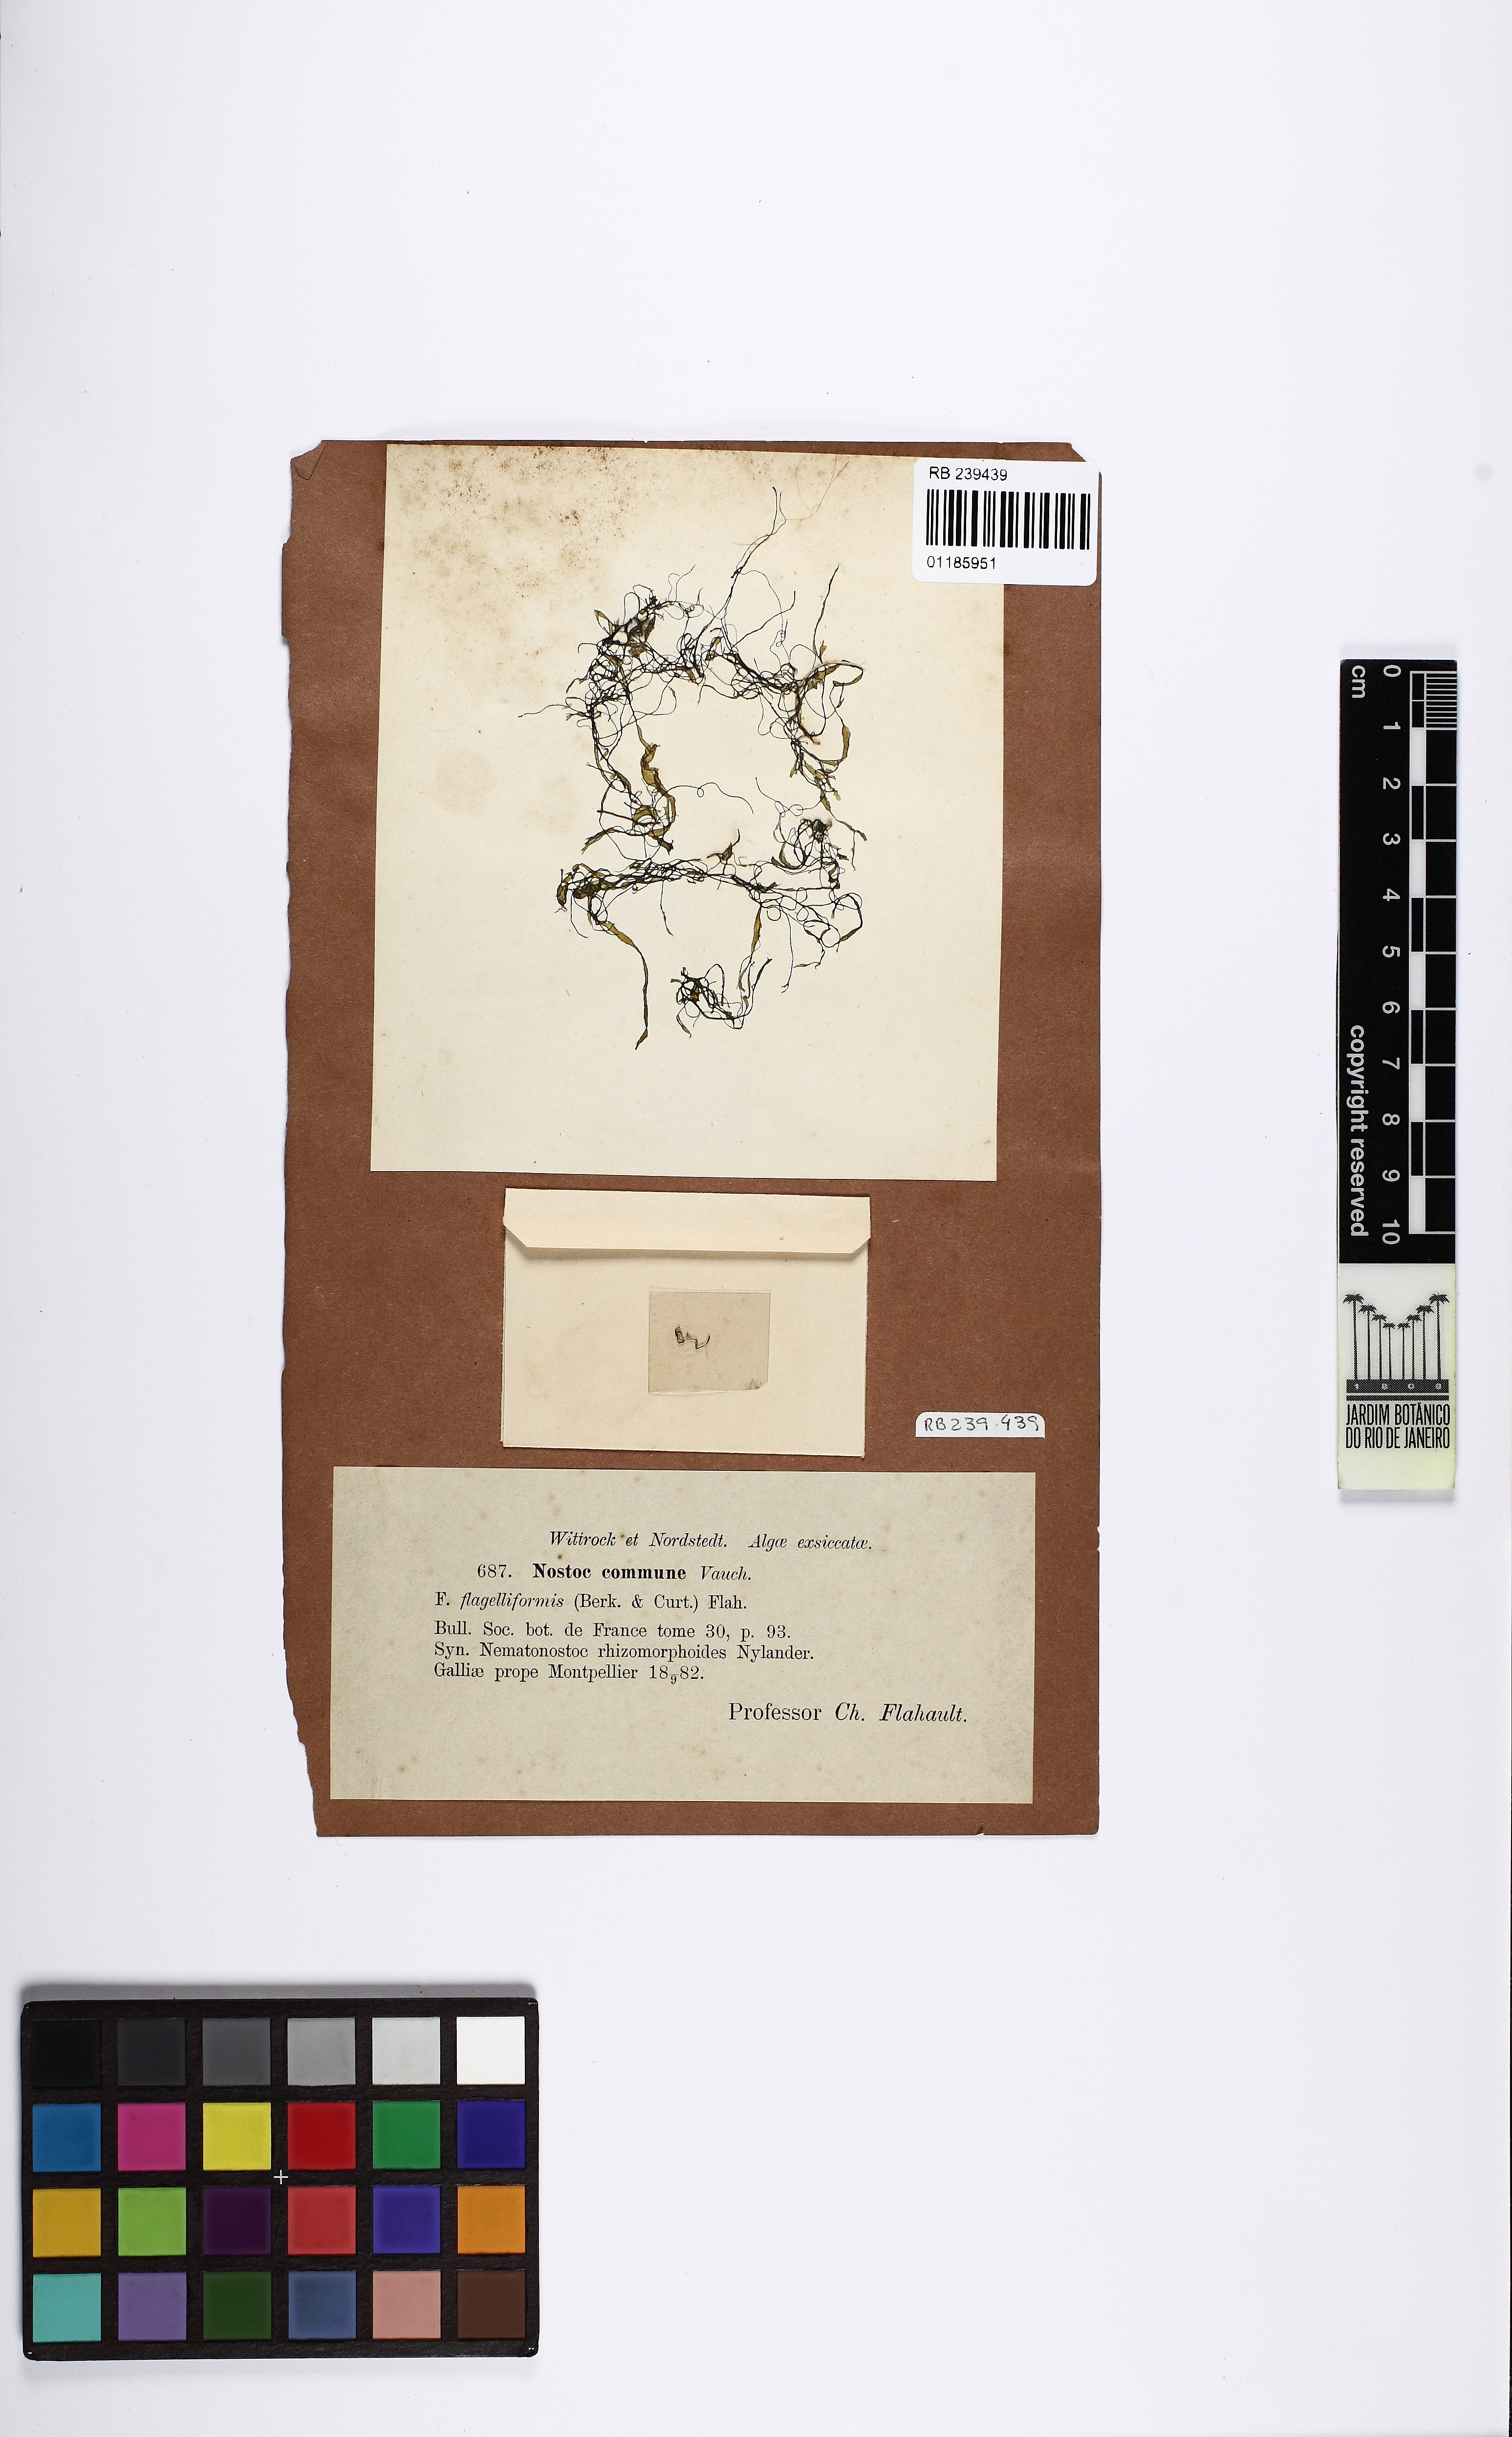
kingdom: Bacteria
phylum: Cyanobacteria
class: Cyanobacteriia
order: Cyanobacteriales
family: Nostocaceae
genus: Nostoc
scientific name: Nostoc commune
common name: Star jelly
